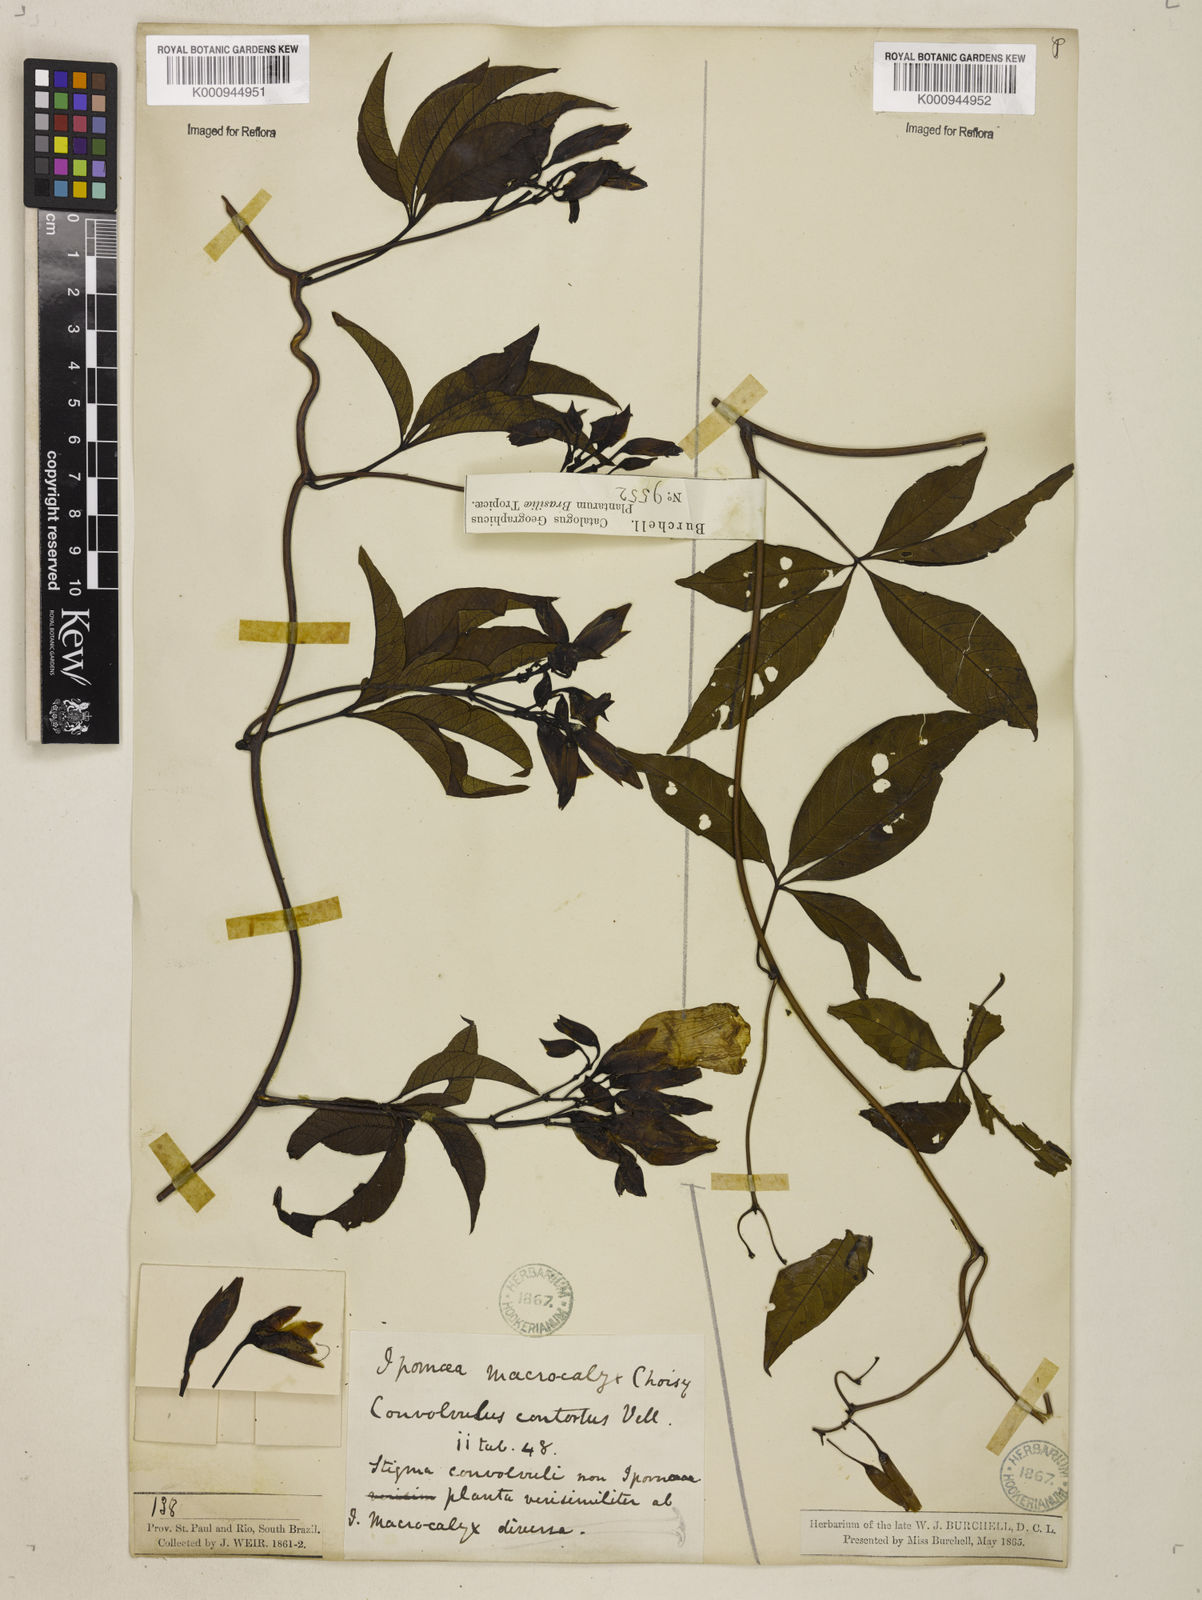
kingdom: Plantae
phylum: Tracheophyta
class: Magnoliopsida
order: Solanales
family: Convolvulaceae
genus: Distimake
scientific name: Distimake macrocalyx
